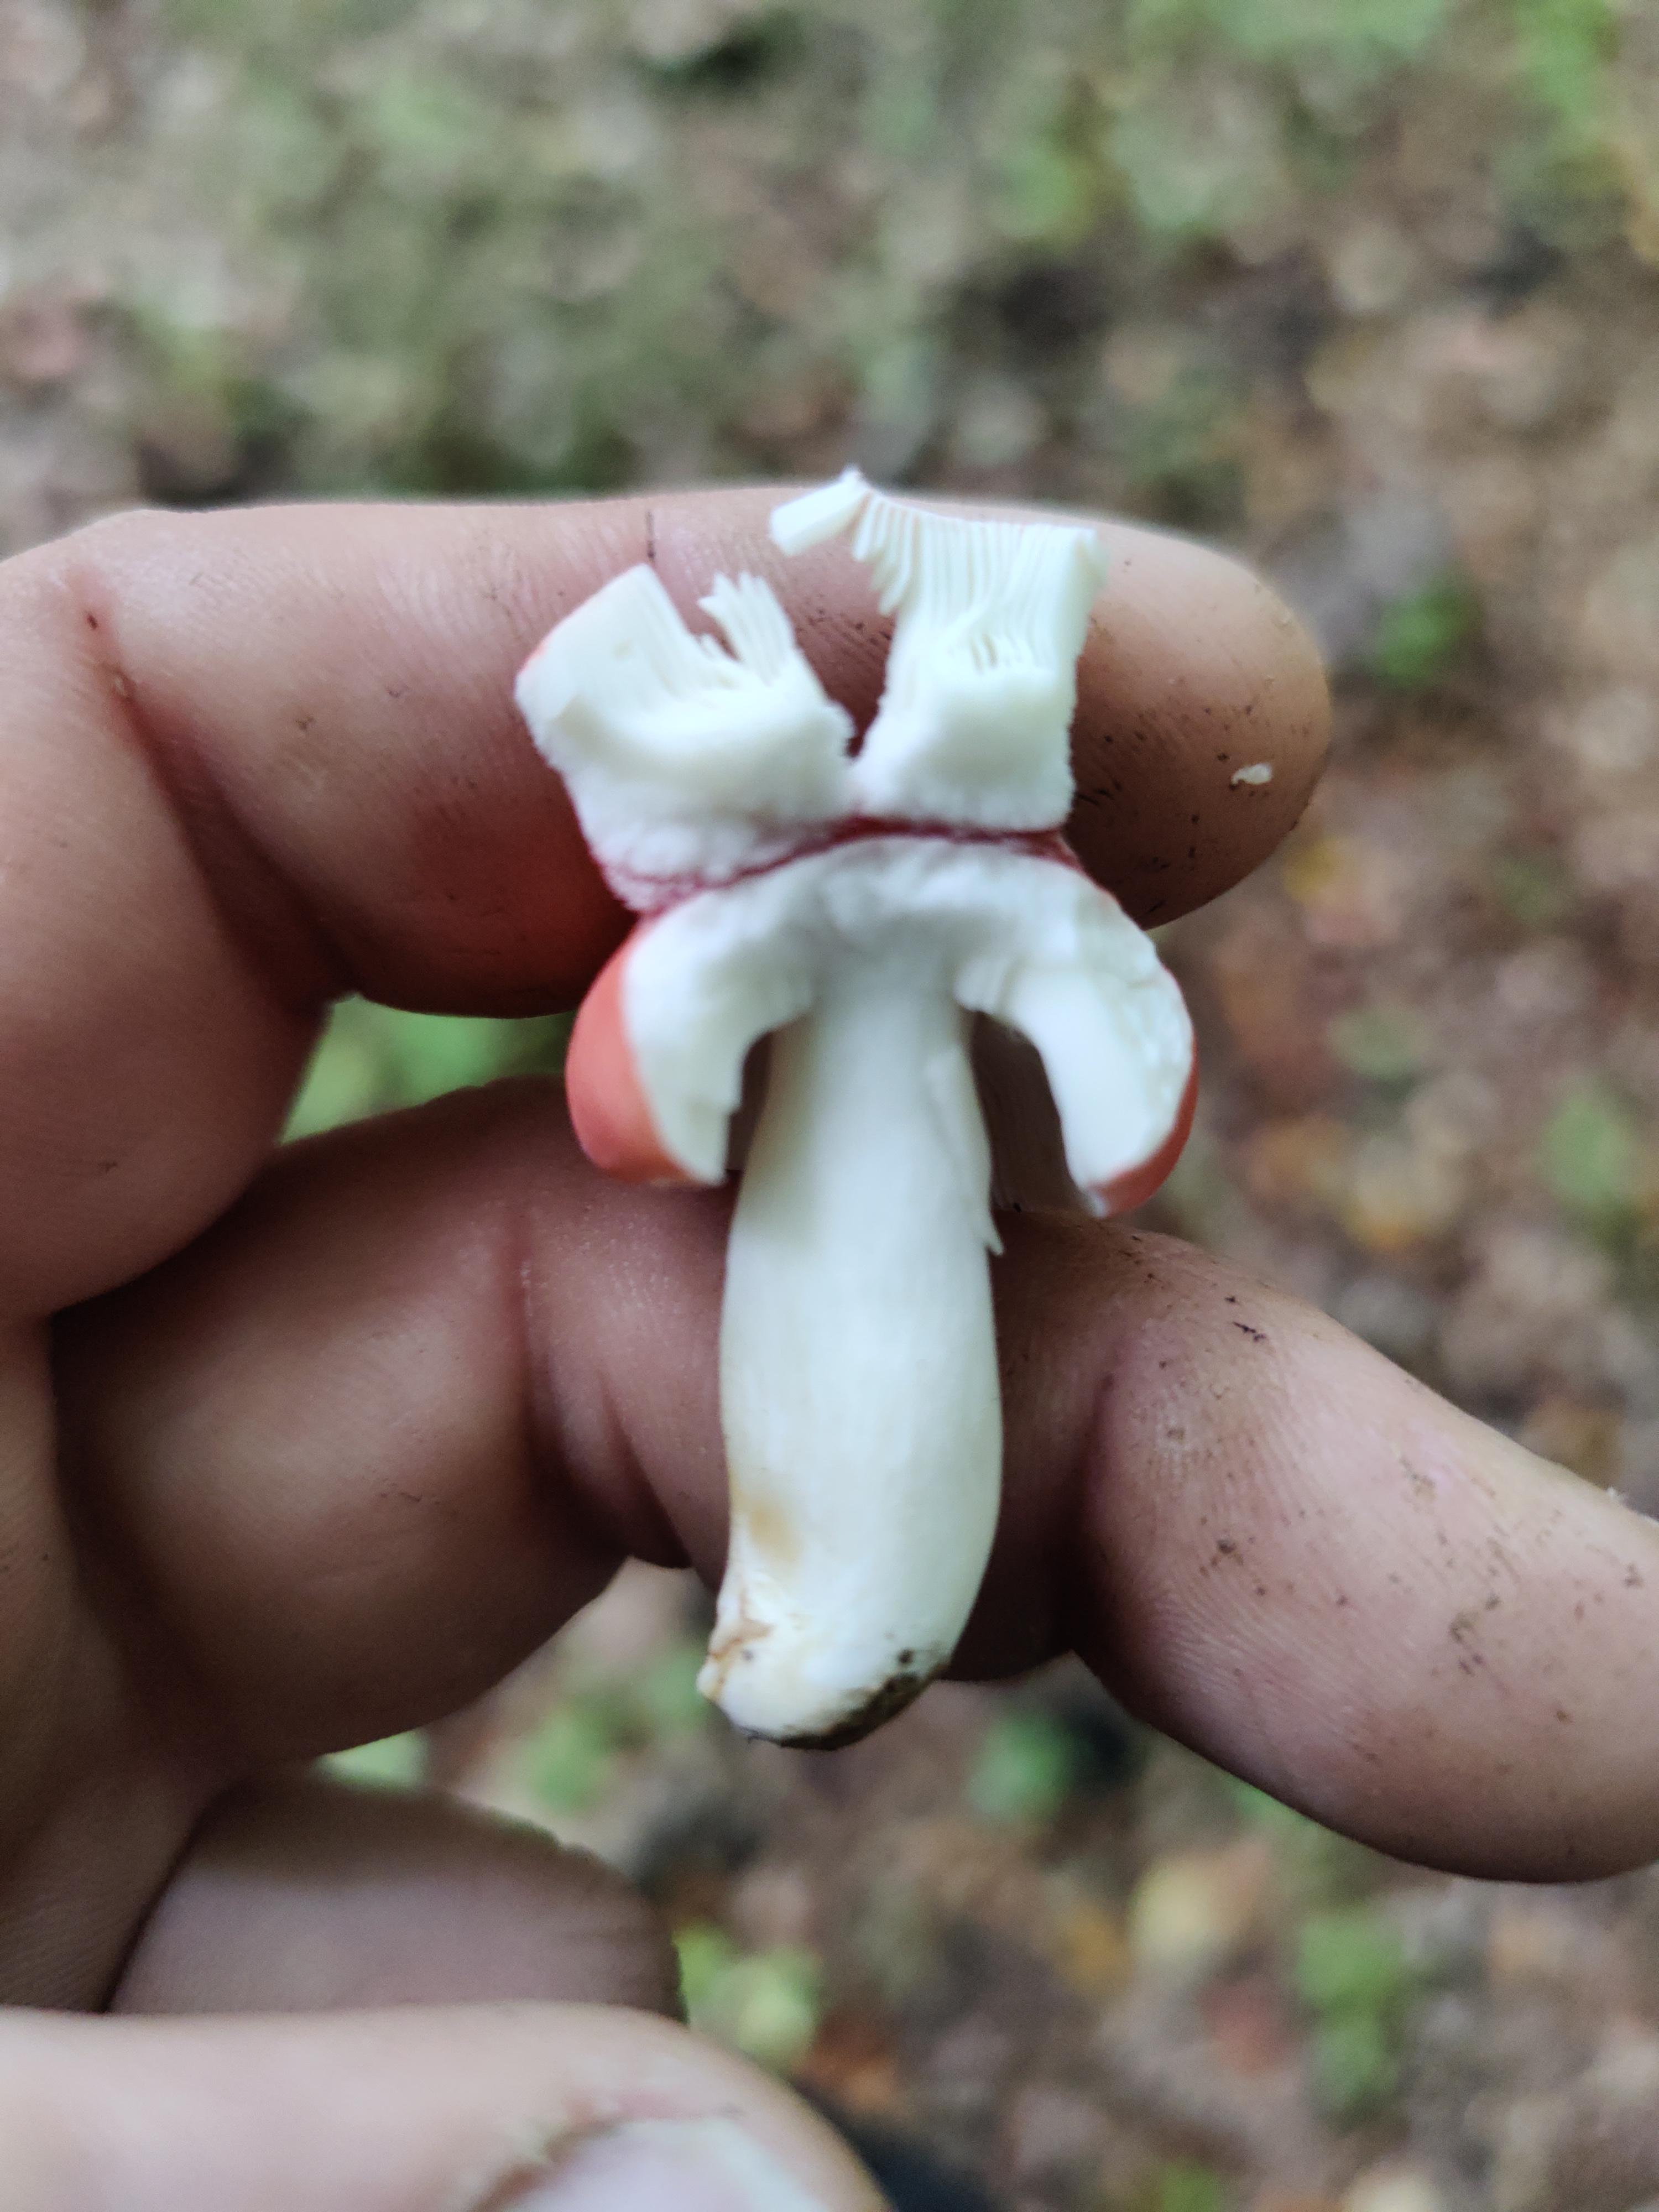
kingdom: Fungi
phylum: Basidiomycota
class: Agaricomycetes
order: Russulales
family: Russulaceae
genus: Russula
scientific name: Russula
